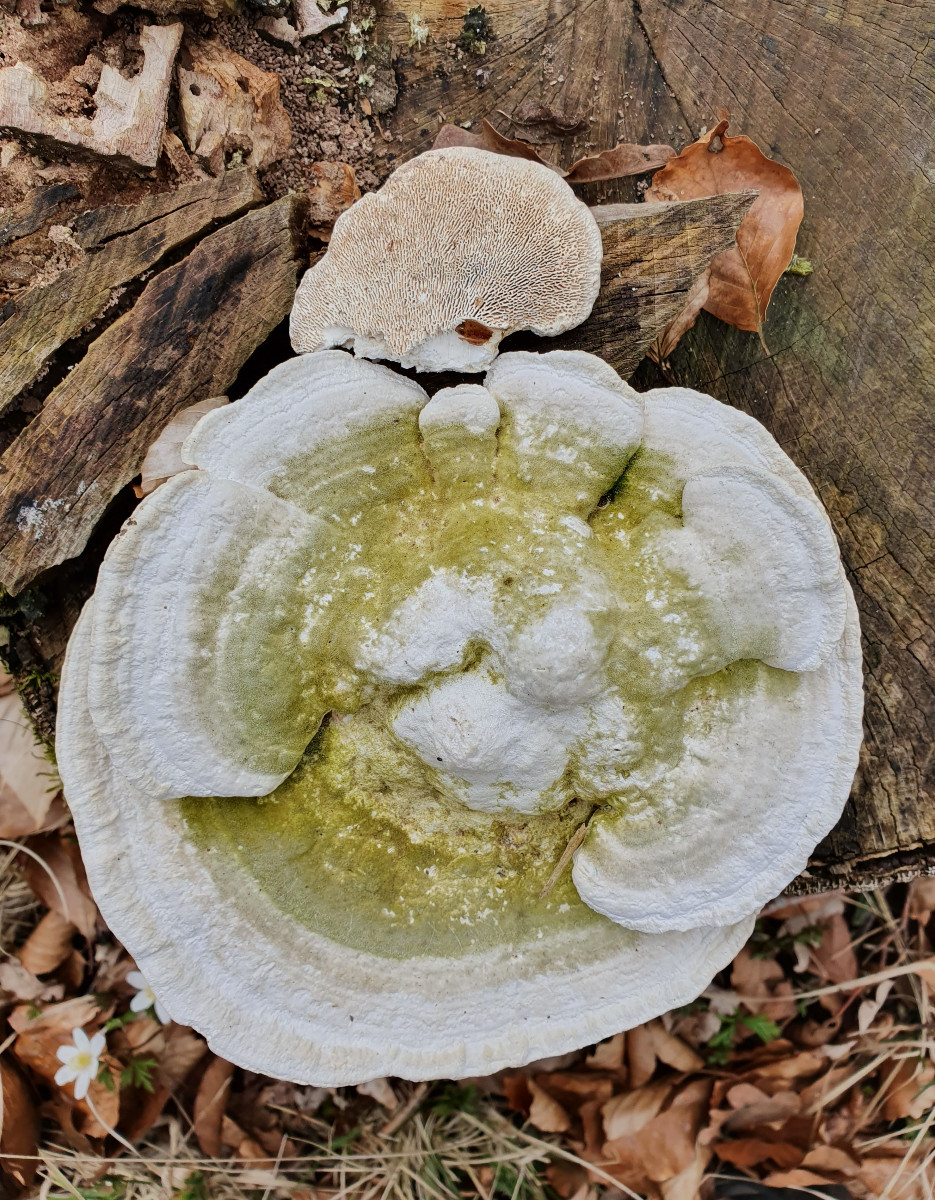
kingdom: Fungi
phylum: Basidiomycota
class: Agaricomycetes
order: Polyporales
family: Polyporaceae
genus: Trametes
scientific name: Trametes gibbosa
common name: puklet læderporesvamp
